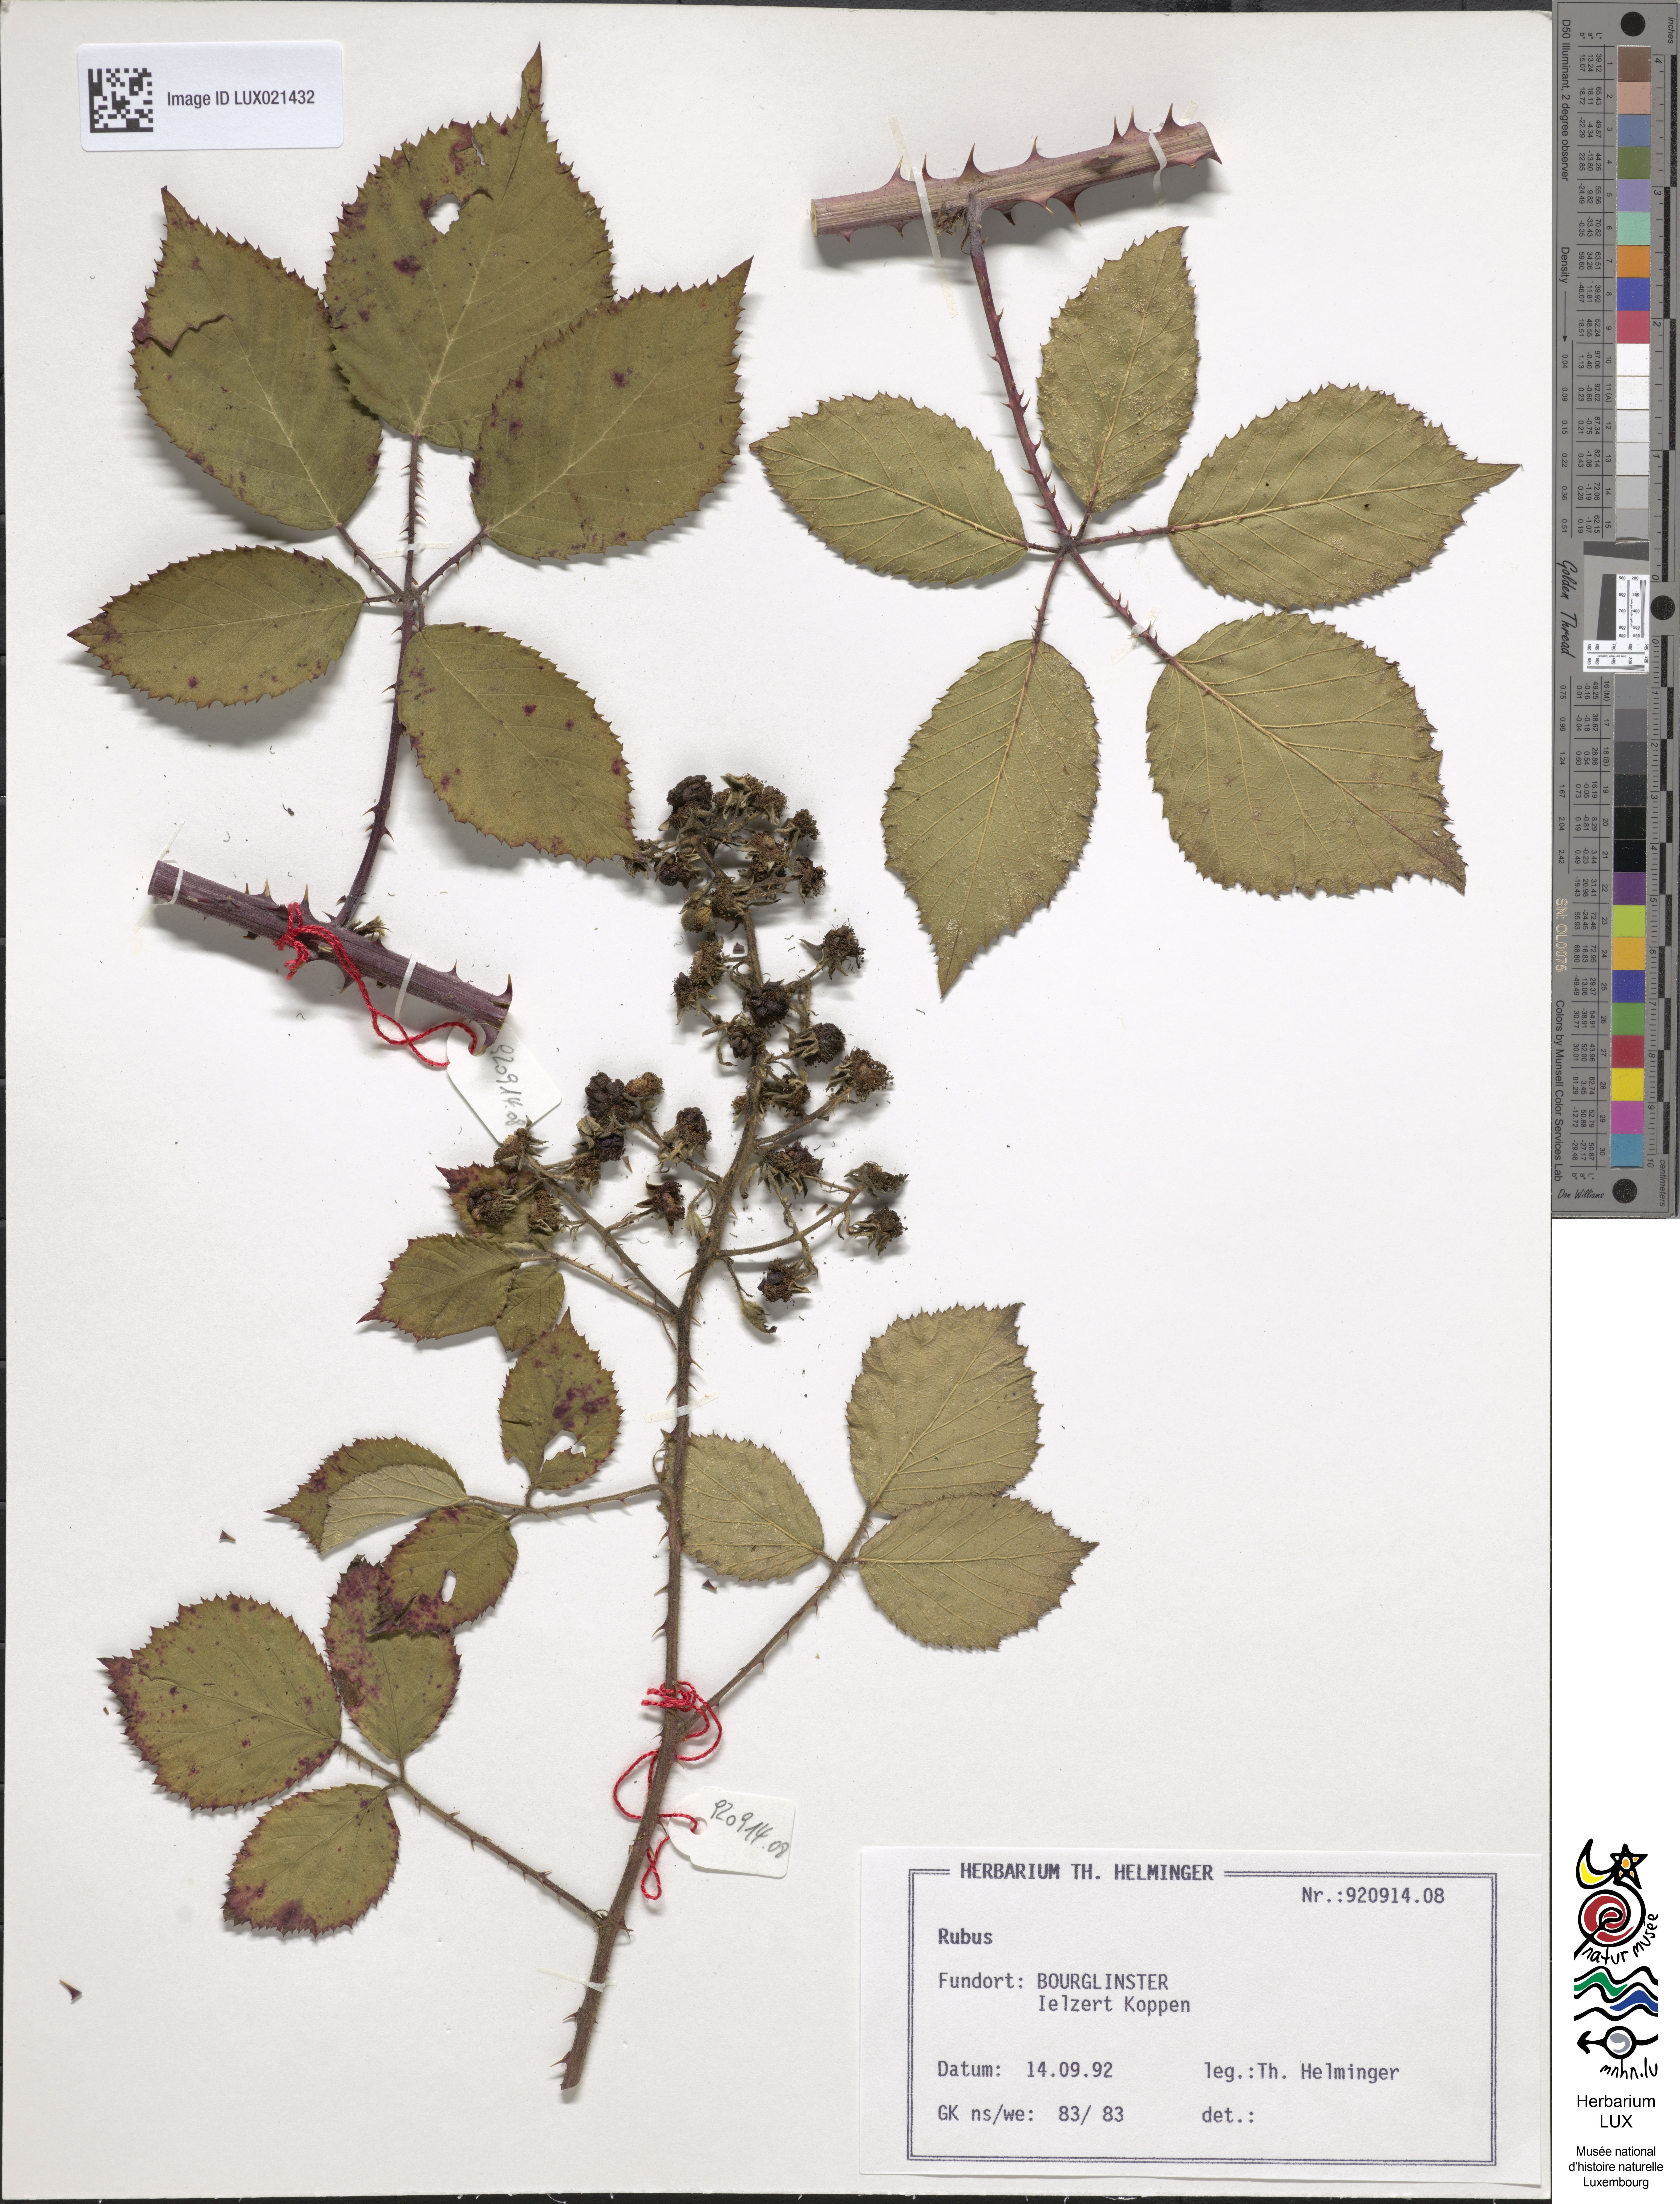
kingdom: Plantae
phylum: Tracheophyta
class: Magnoliopsida
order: Rosales
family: Rosaceae
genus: Rubus
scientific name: Rubus
